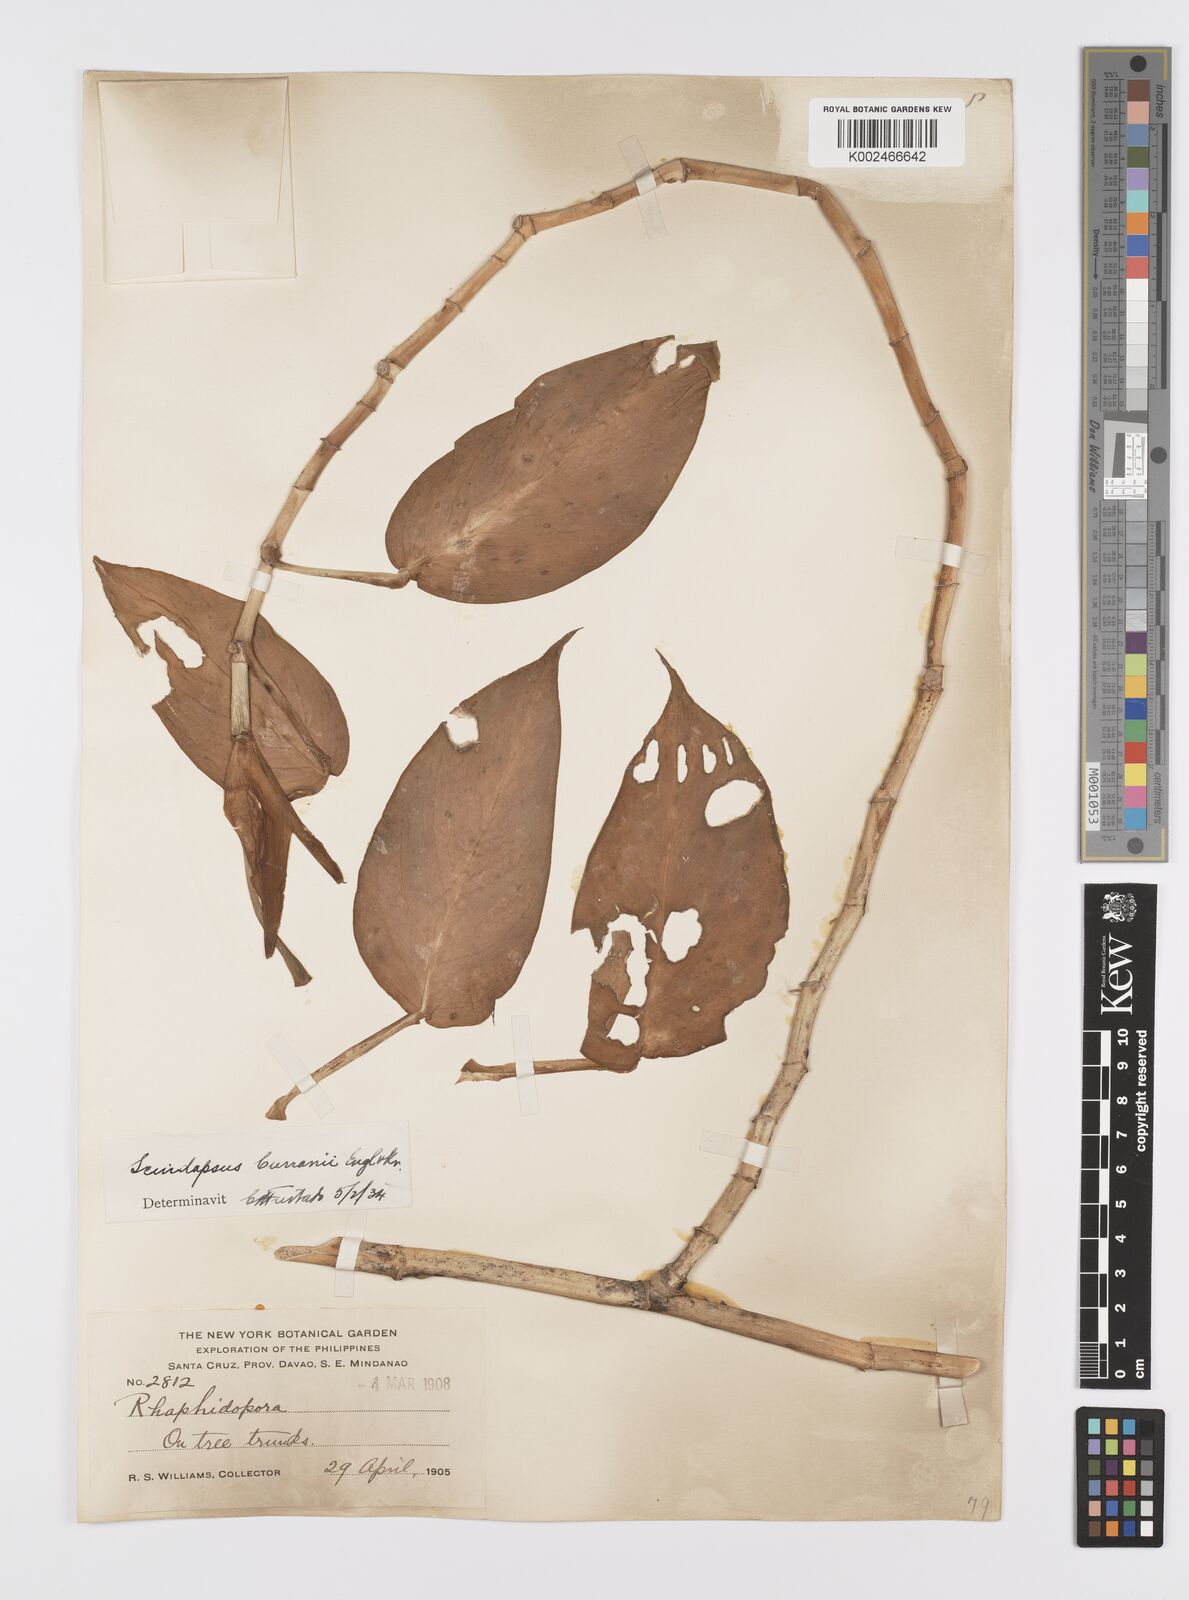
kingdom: Plantae
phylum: Tracheophyta
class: Liliopsida
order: Alismatales
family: Araceae
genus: Scindapsus
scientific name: Scindapsus curranii
